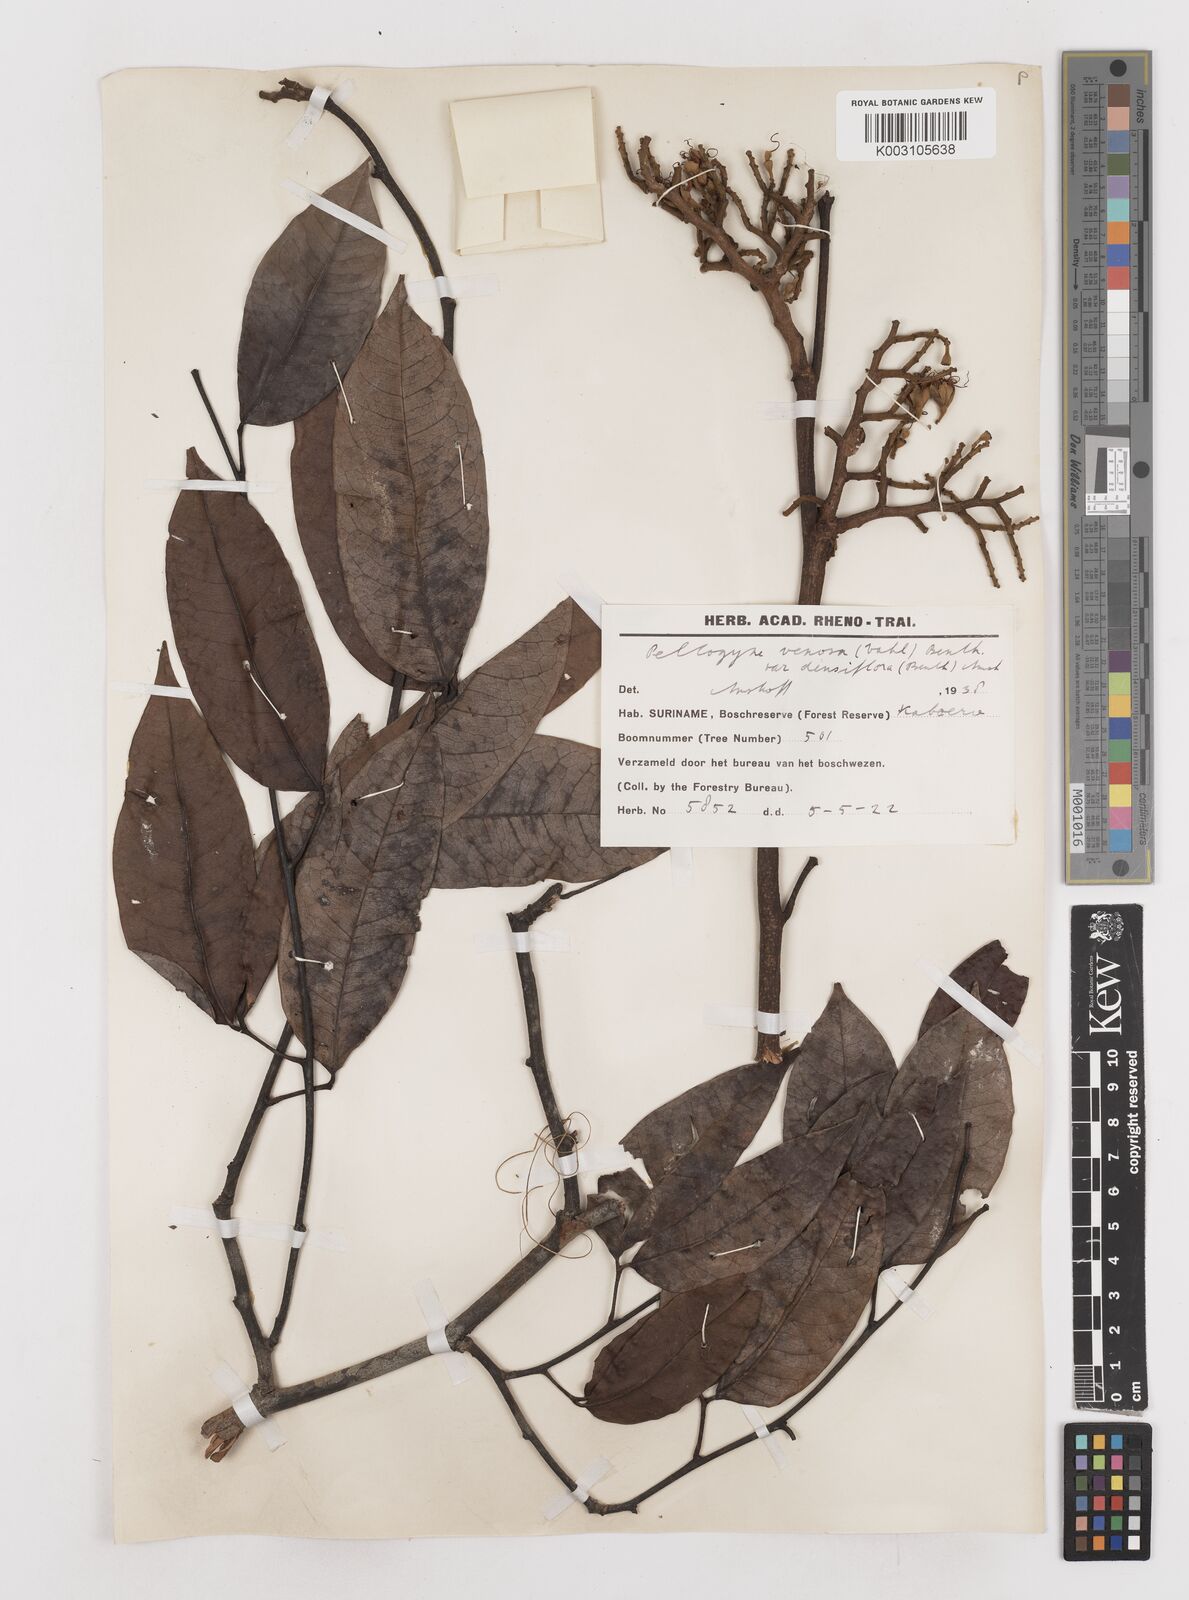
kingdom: Plantae
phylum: Tracheophyta
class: Magnoliopsida
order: Fabales
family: Fabaceae
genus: Peltogyne
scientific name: Peltogyne venosa
